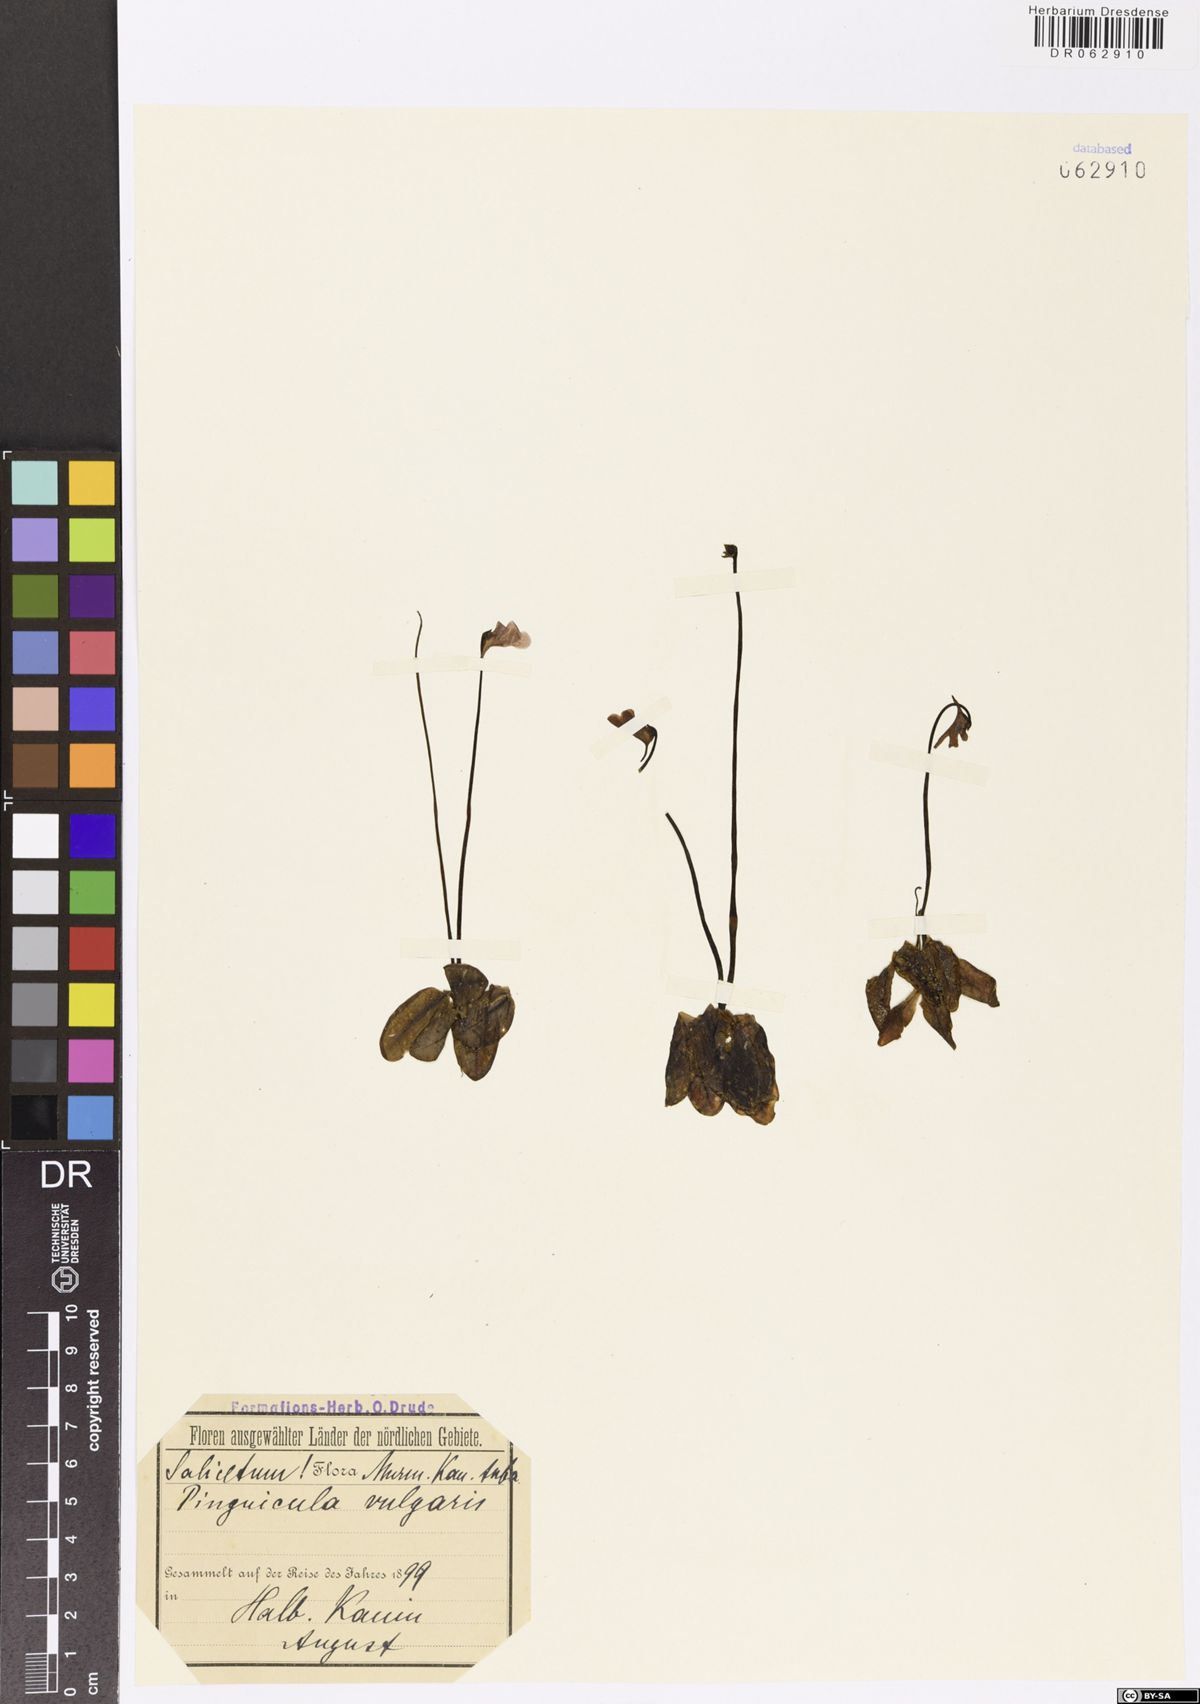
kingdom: Plantae
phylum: Tracheophyta
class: Magnoliopsida
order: Lamiales
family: Lentibulariaceae
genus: Pinguicula
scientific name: Pinguicula vulgaris
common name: Common butterwort
